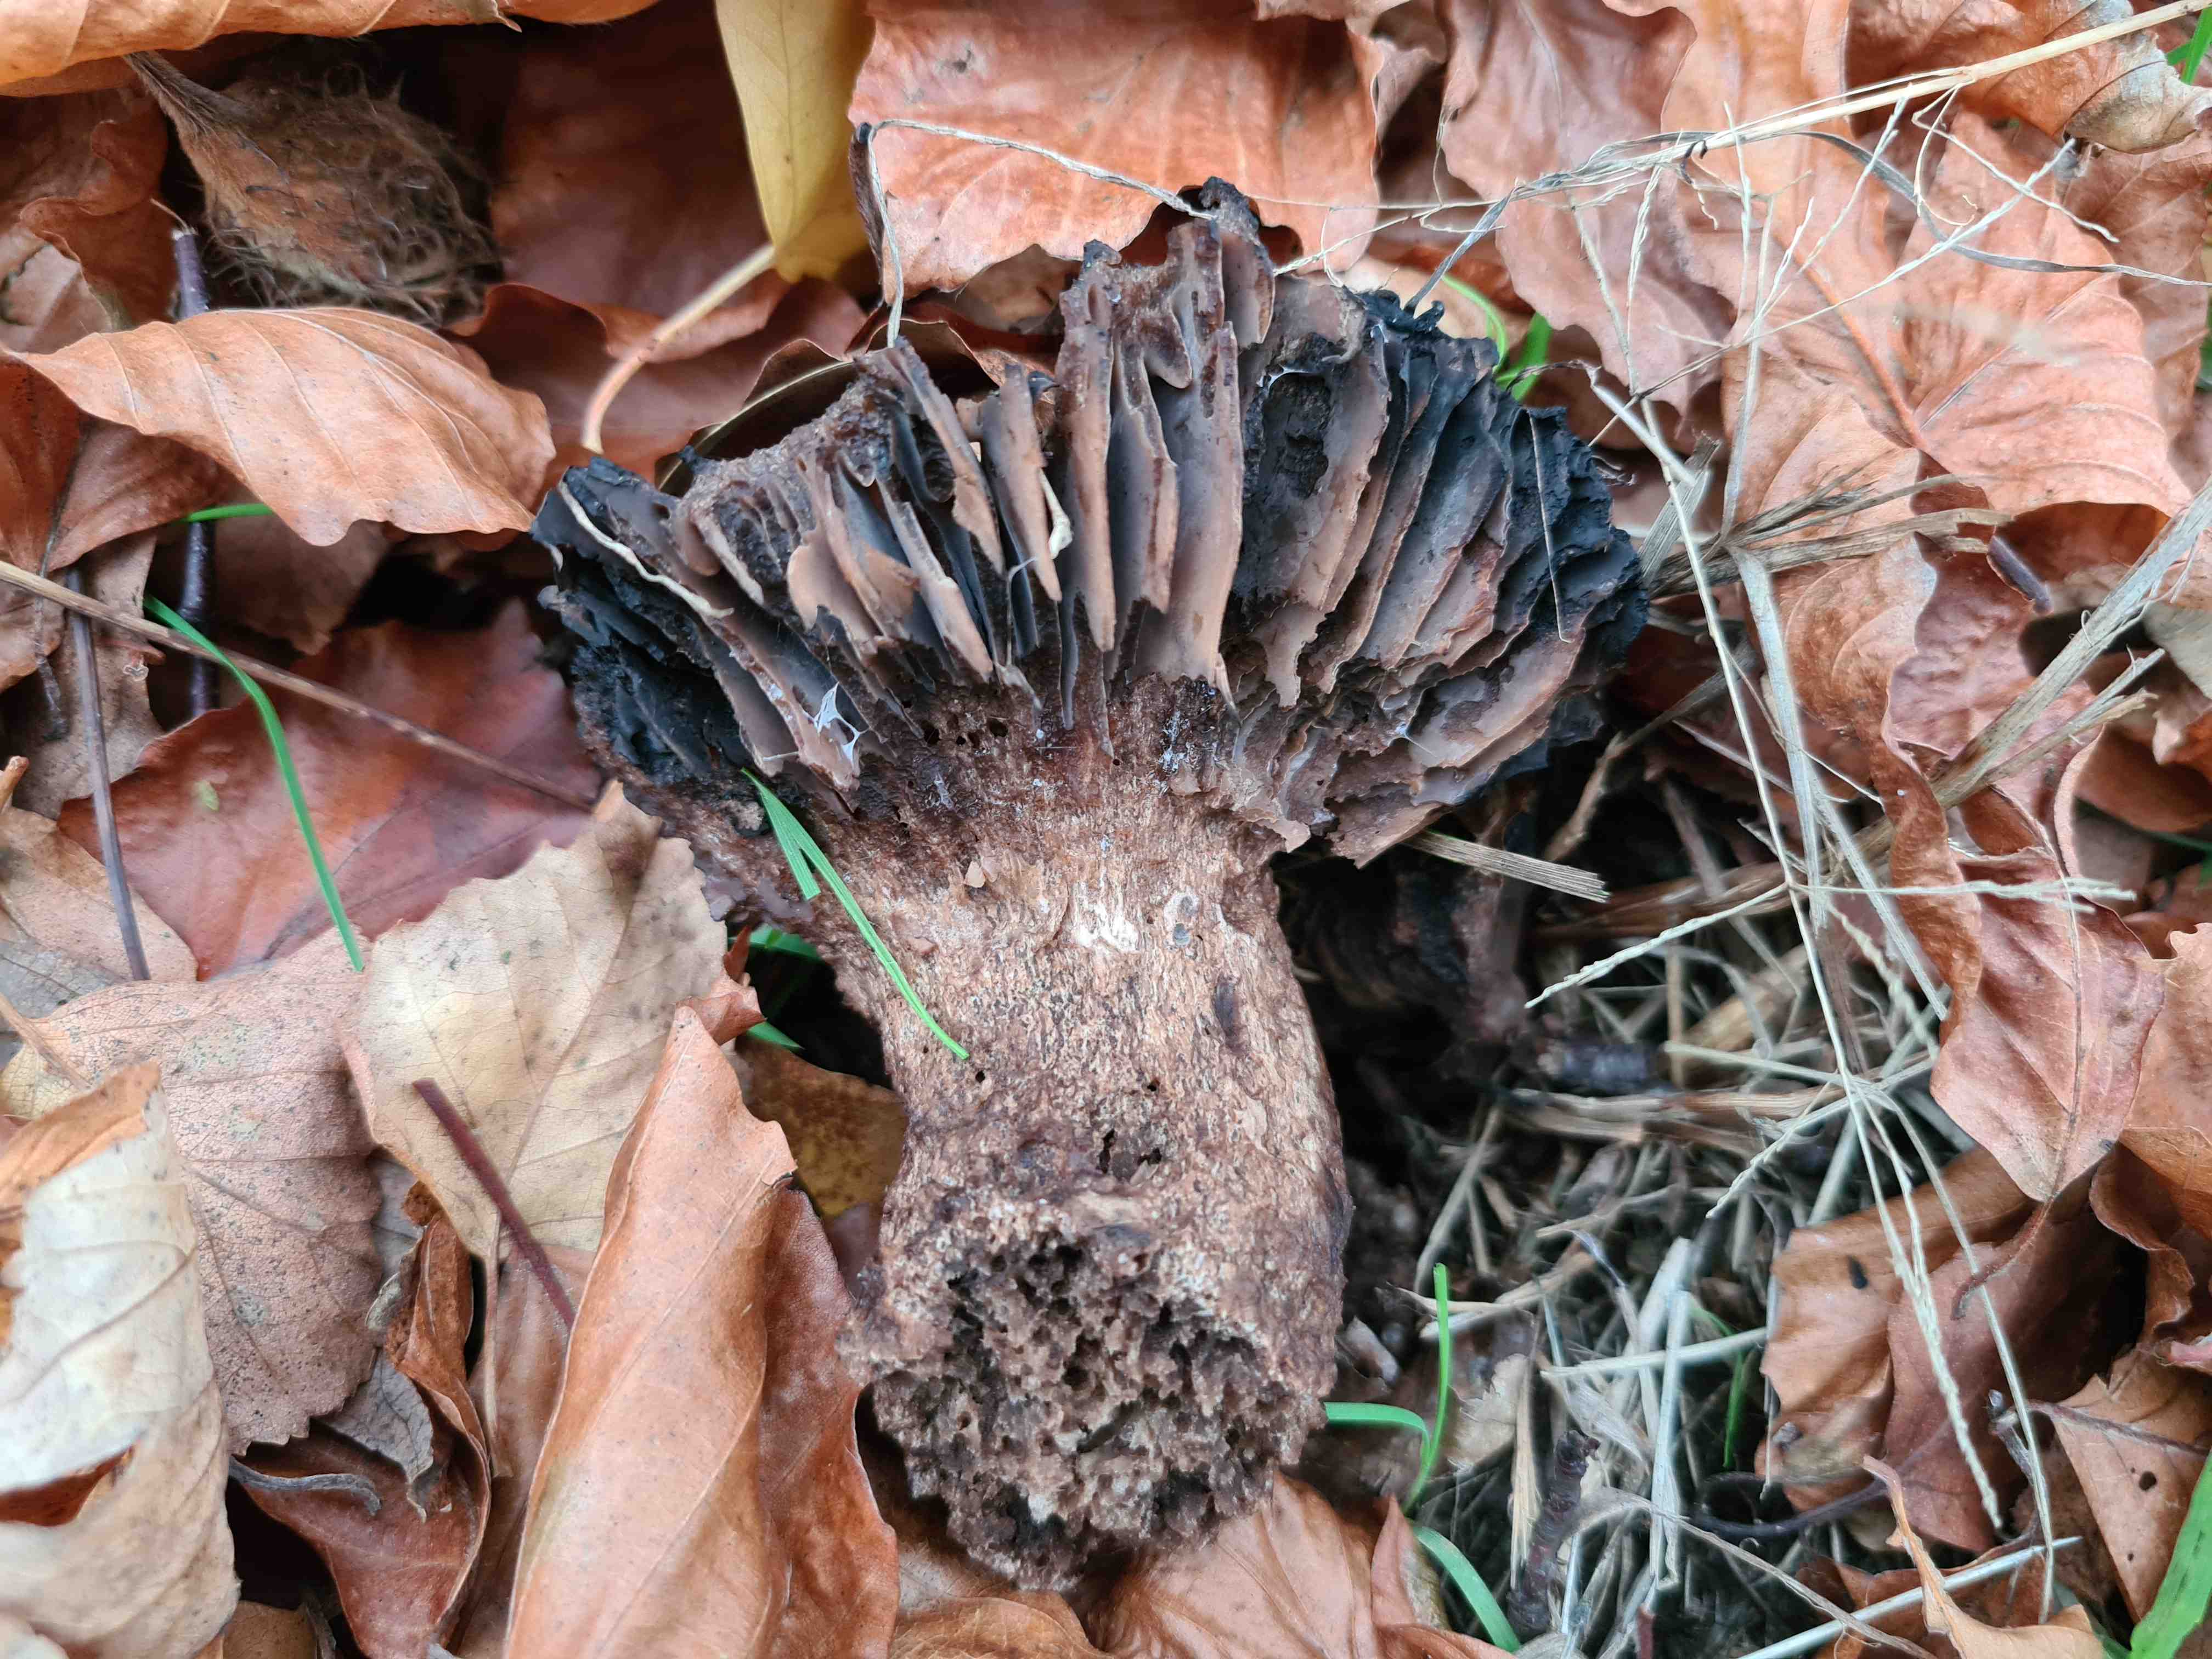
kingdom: Fungi
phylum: Basidiomycota
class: Agaricomycetes
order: Russulales
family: Russulaceae
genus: Russula
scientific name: Russula adusta
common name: sværtende skørhat
